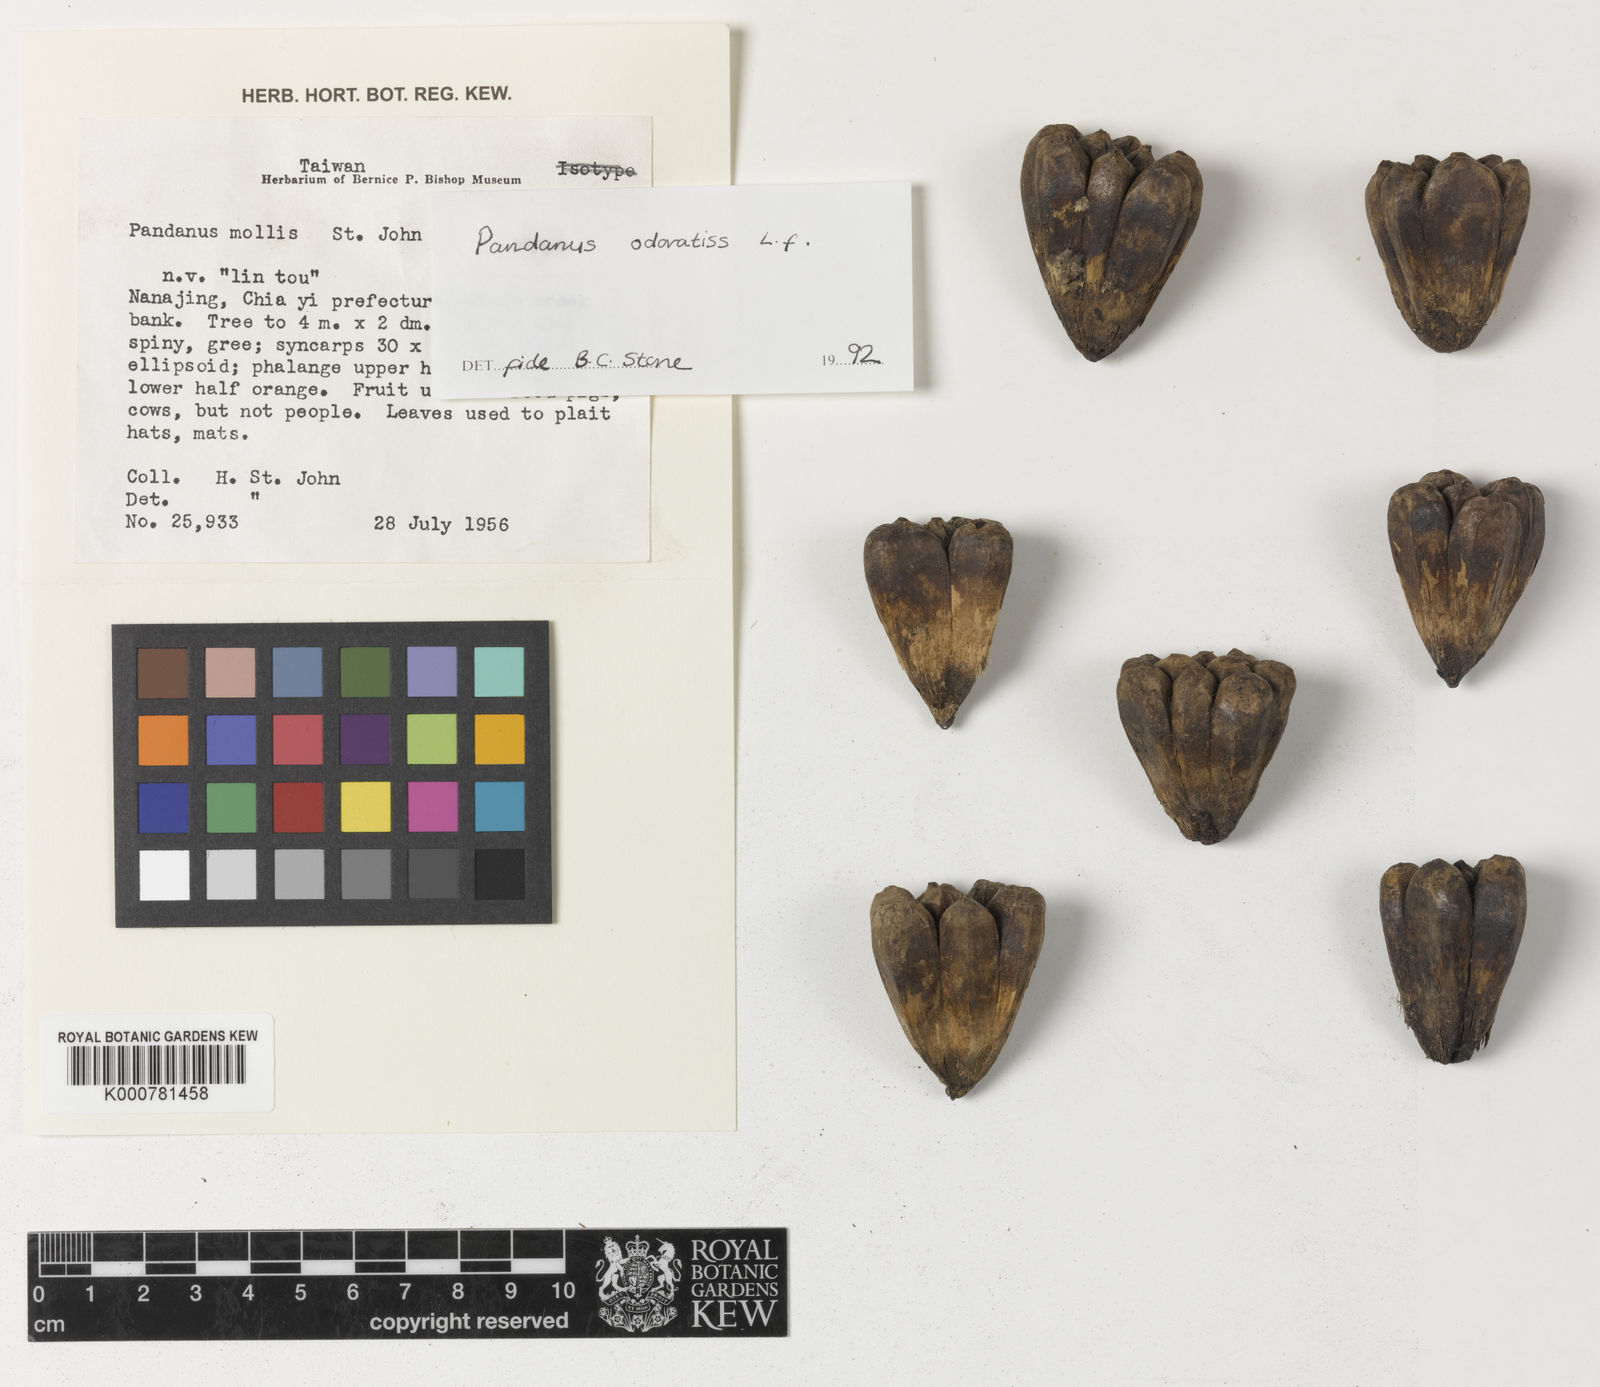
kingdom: Plantae
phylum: Tracheophyta
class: Liliopsida
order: Pandanales
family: Pandanaceae
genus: Pandanus
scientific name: Pandanus
